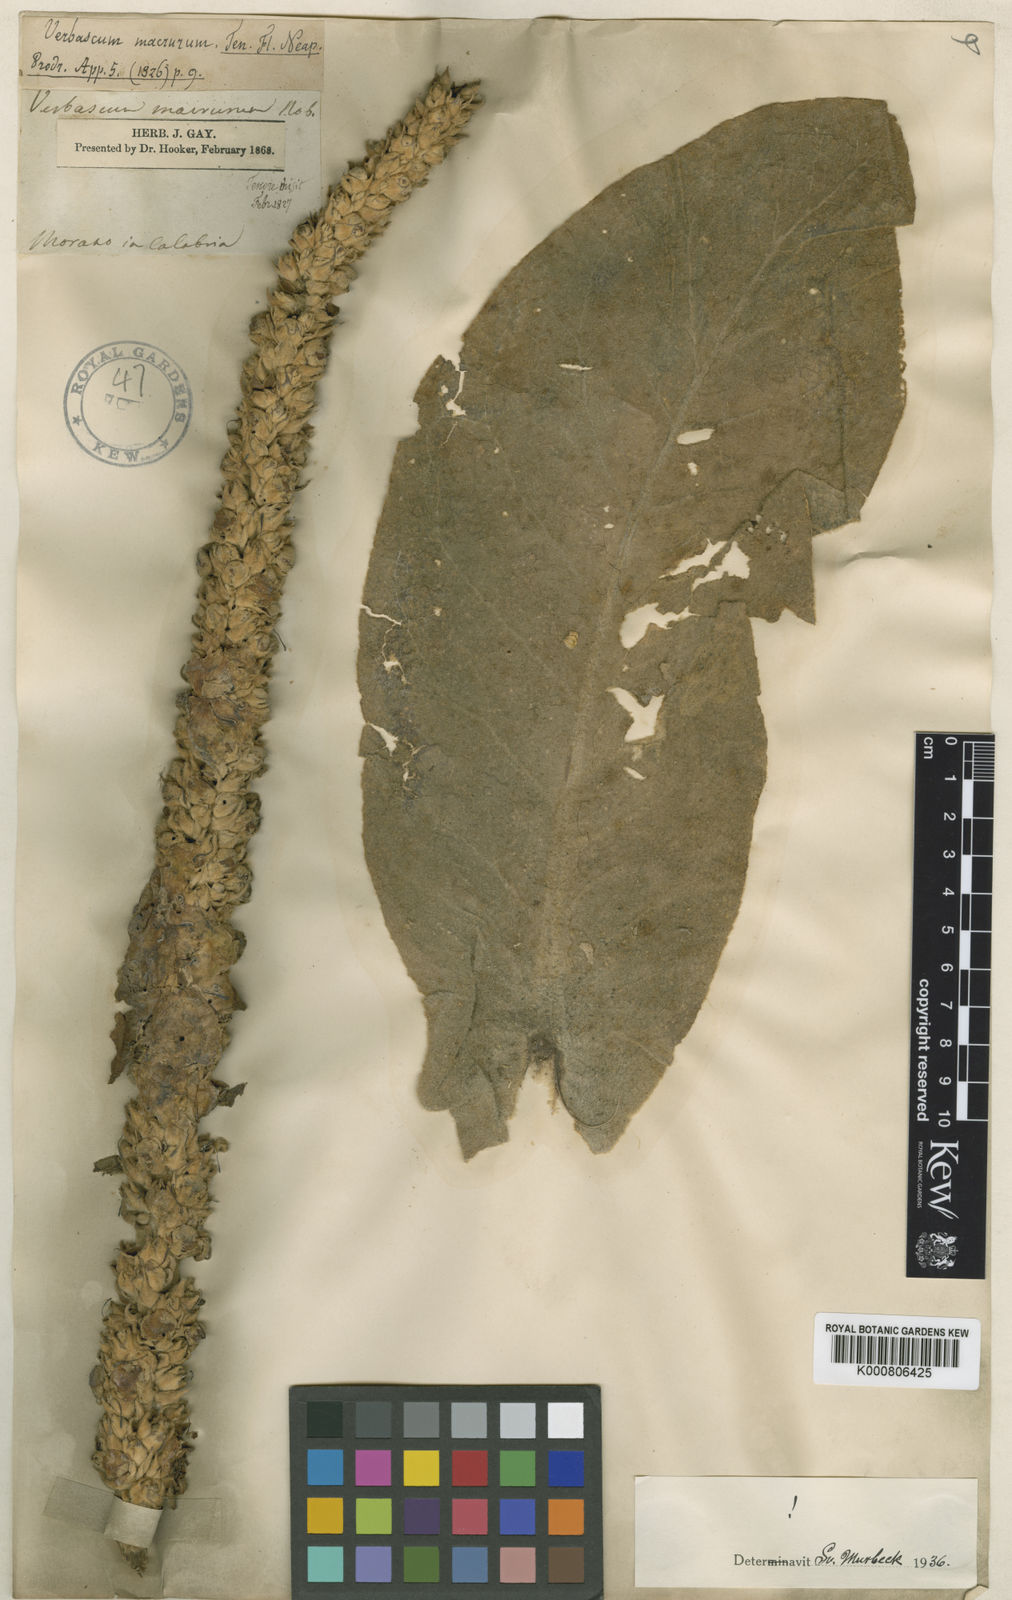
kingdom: Plantae
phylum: Tracheophyta
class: Magnoliopsida
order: Lamiales
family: Scrophulariaceae
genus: Verbascum
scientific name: Verbascum macrurum
